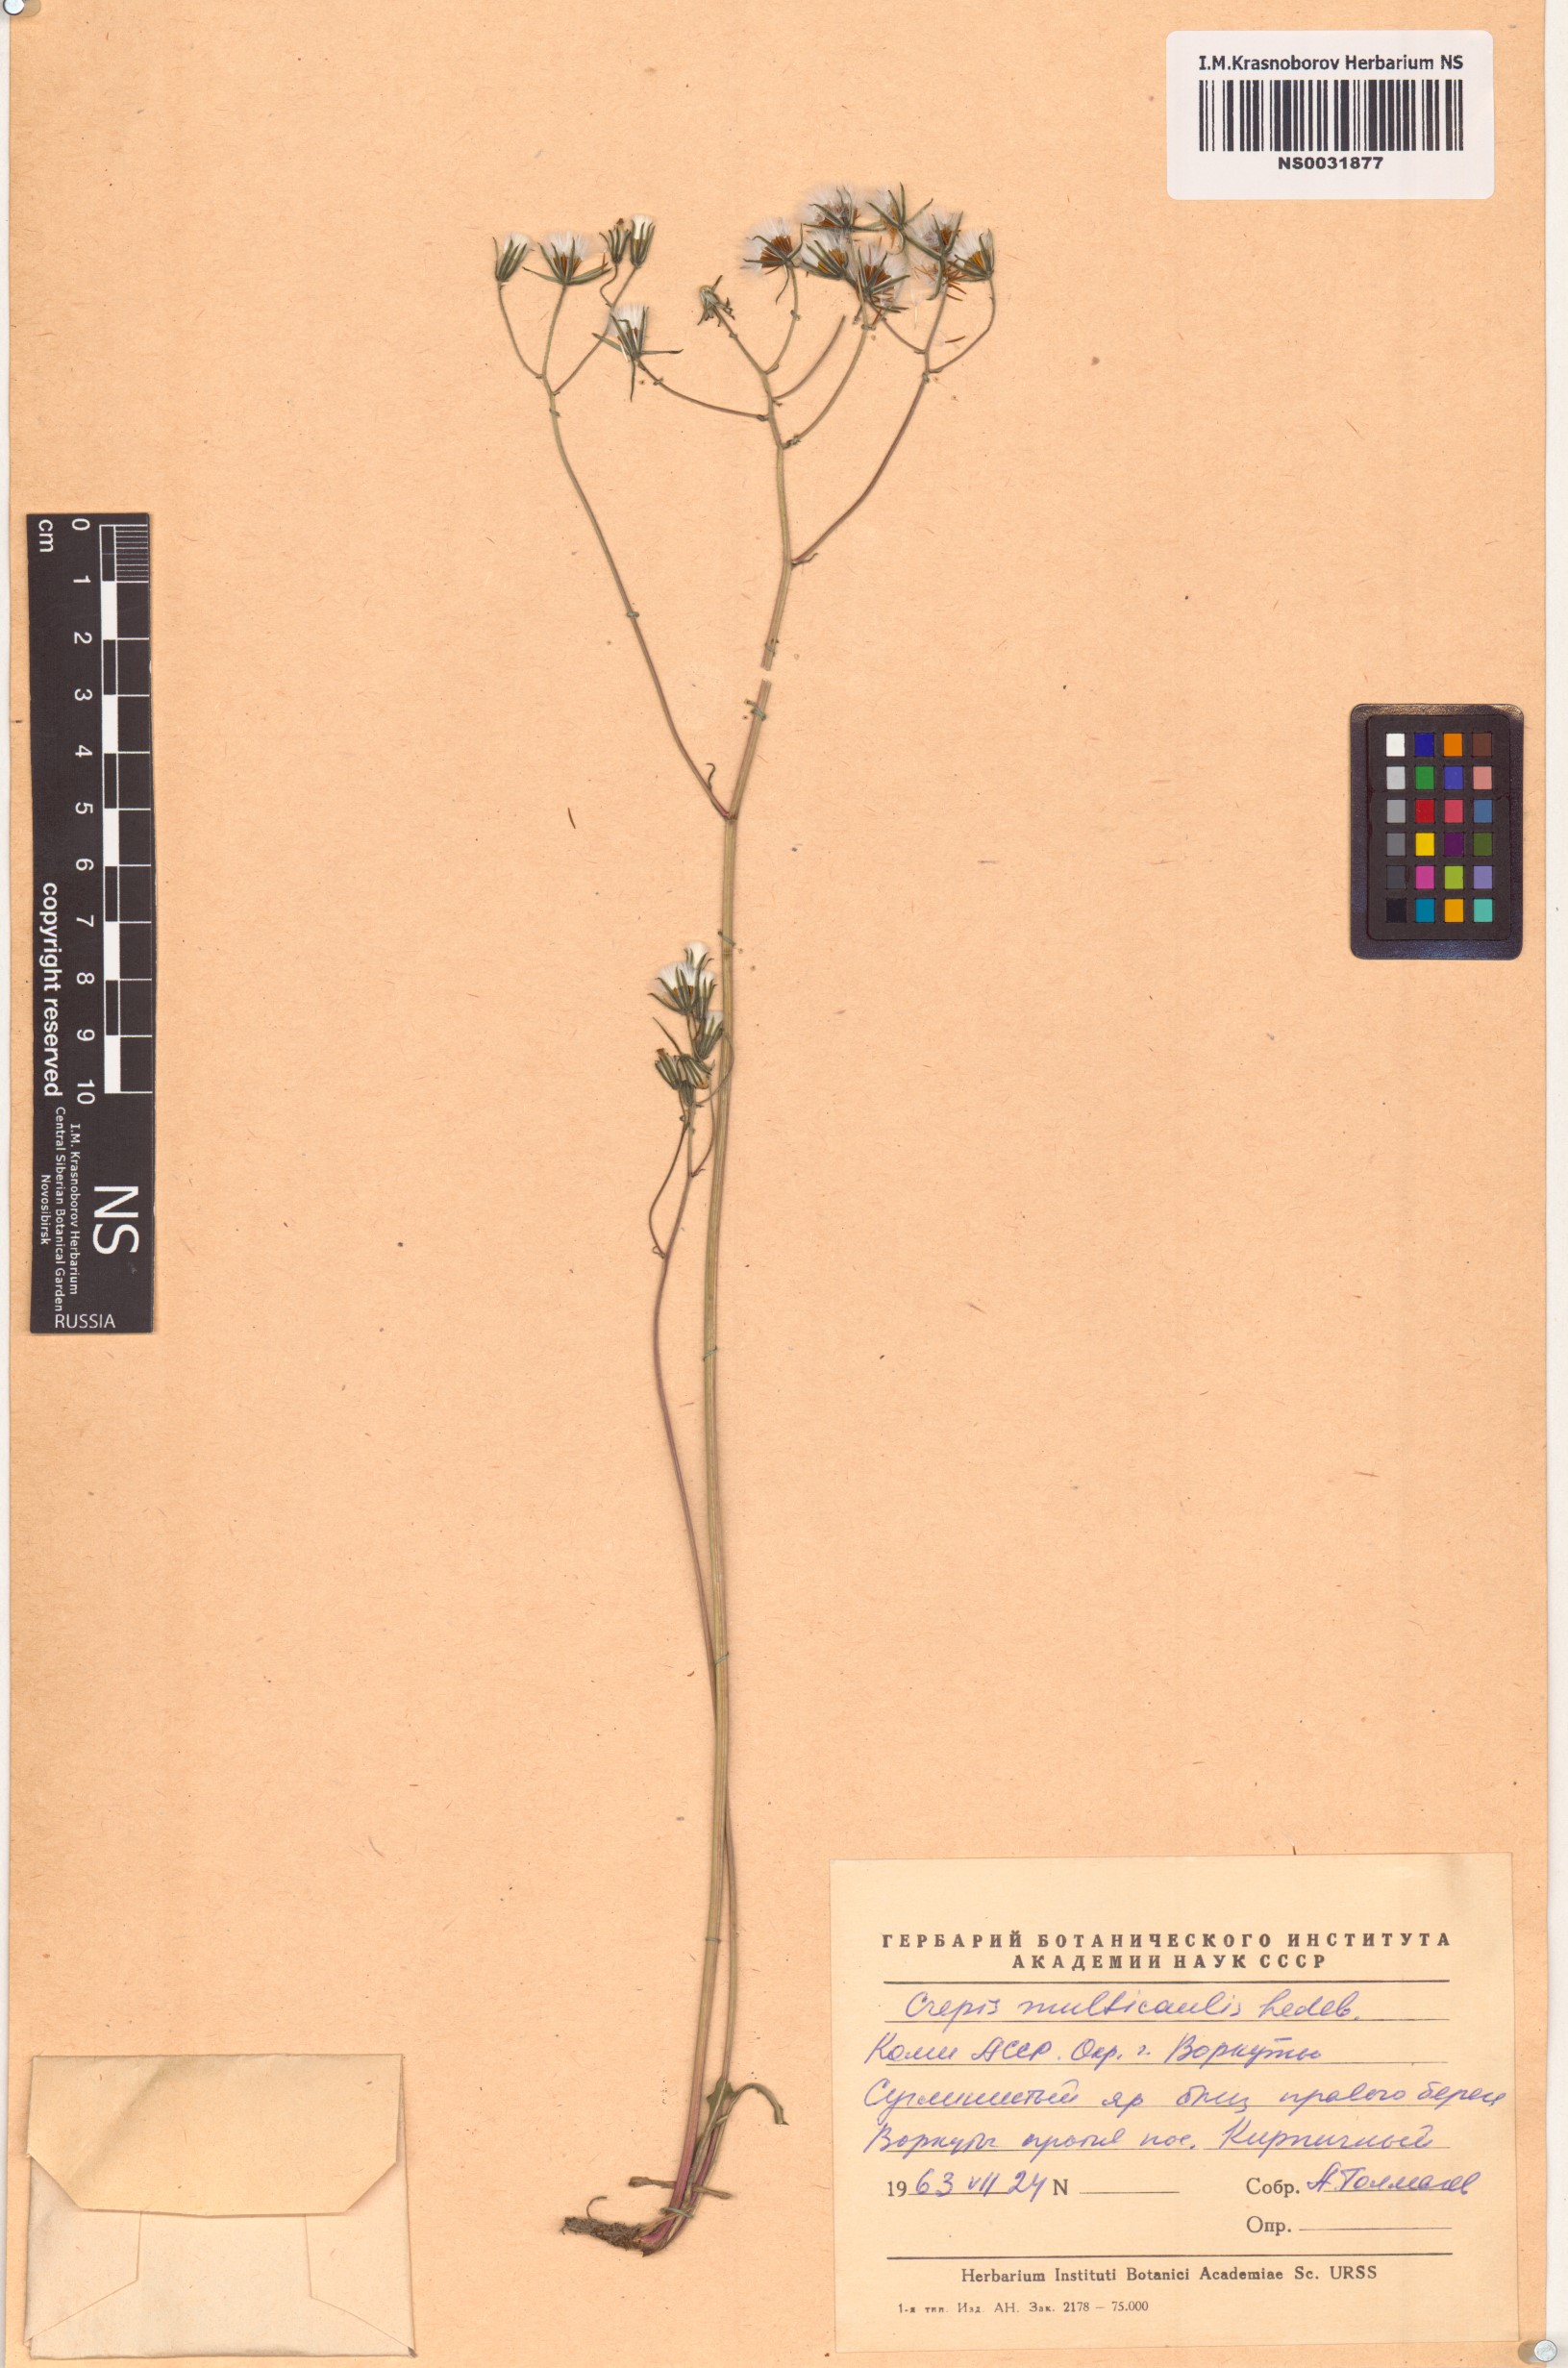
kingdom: Plantae
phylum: Tracheophyta
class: Magnoliopsida
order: Asterales
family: Asteraceae
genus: Crepis
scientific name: Crepis multicaulis
